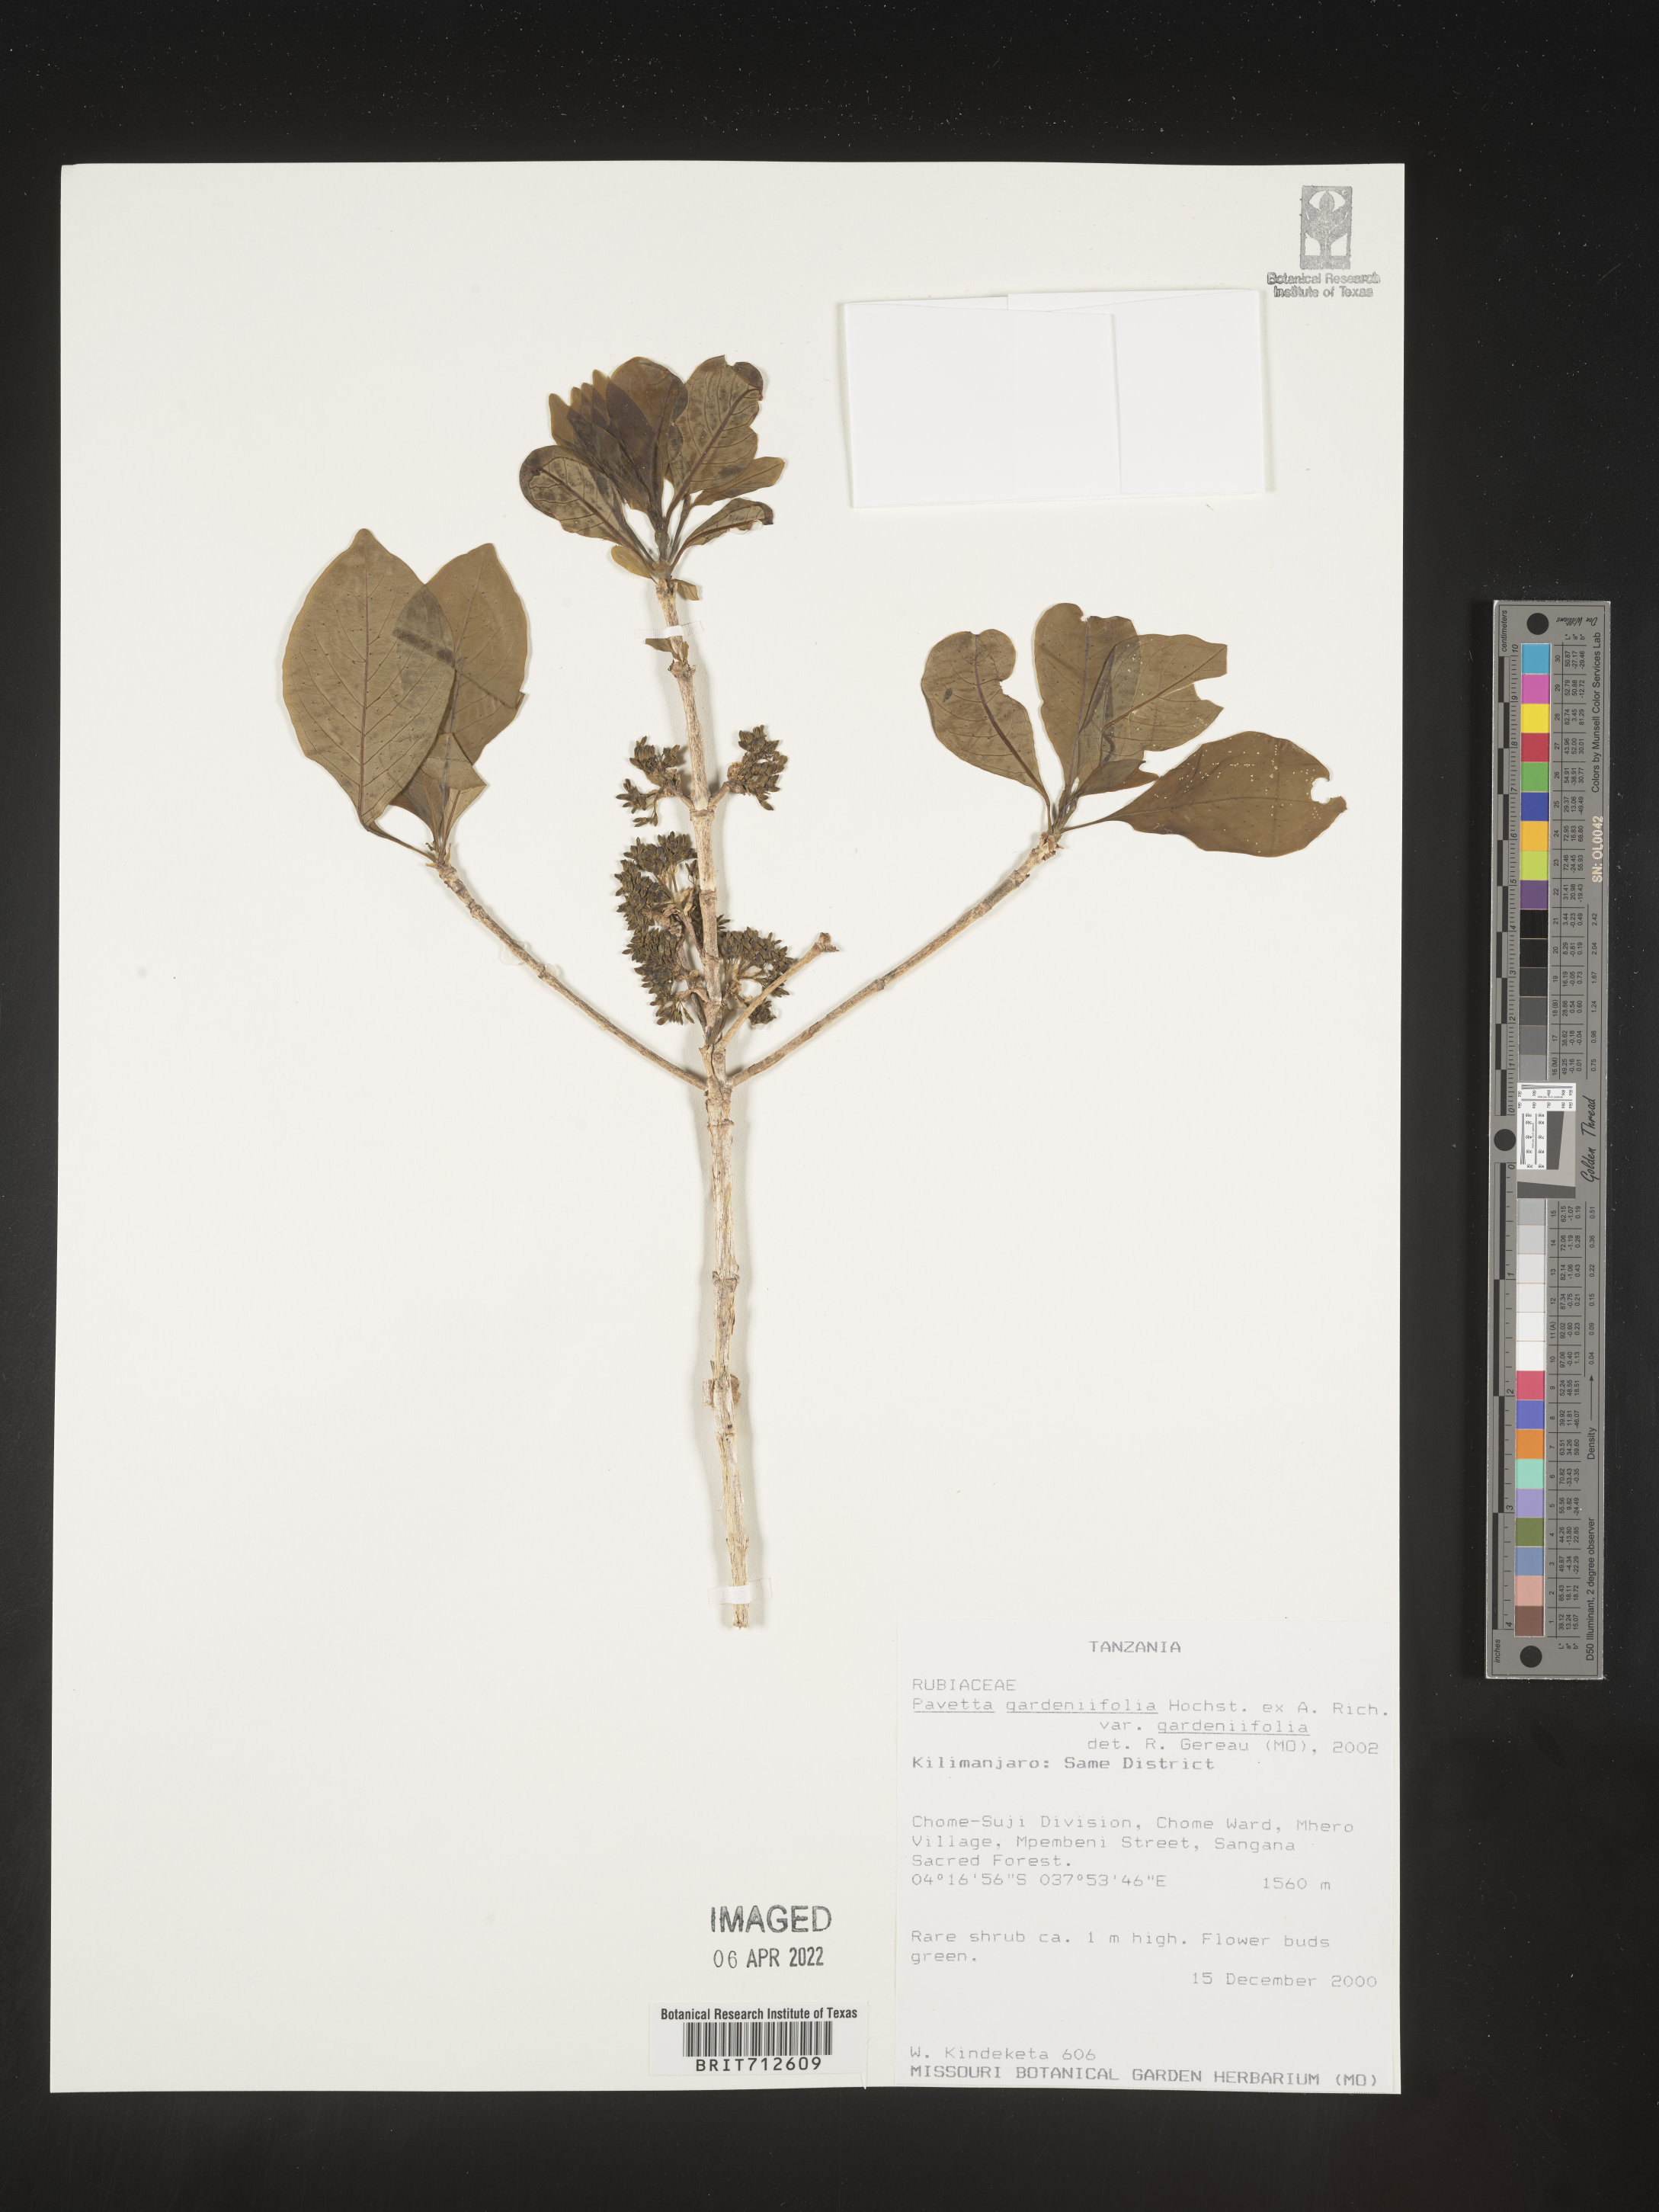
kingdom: Plantae
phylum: Tracheophyta
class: Magnoliopsida
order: Gentianales
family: Rubiaceae
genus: Pavetta
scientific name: Pavetta
